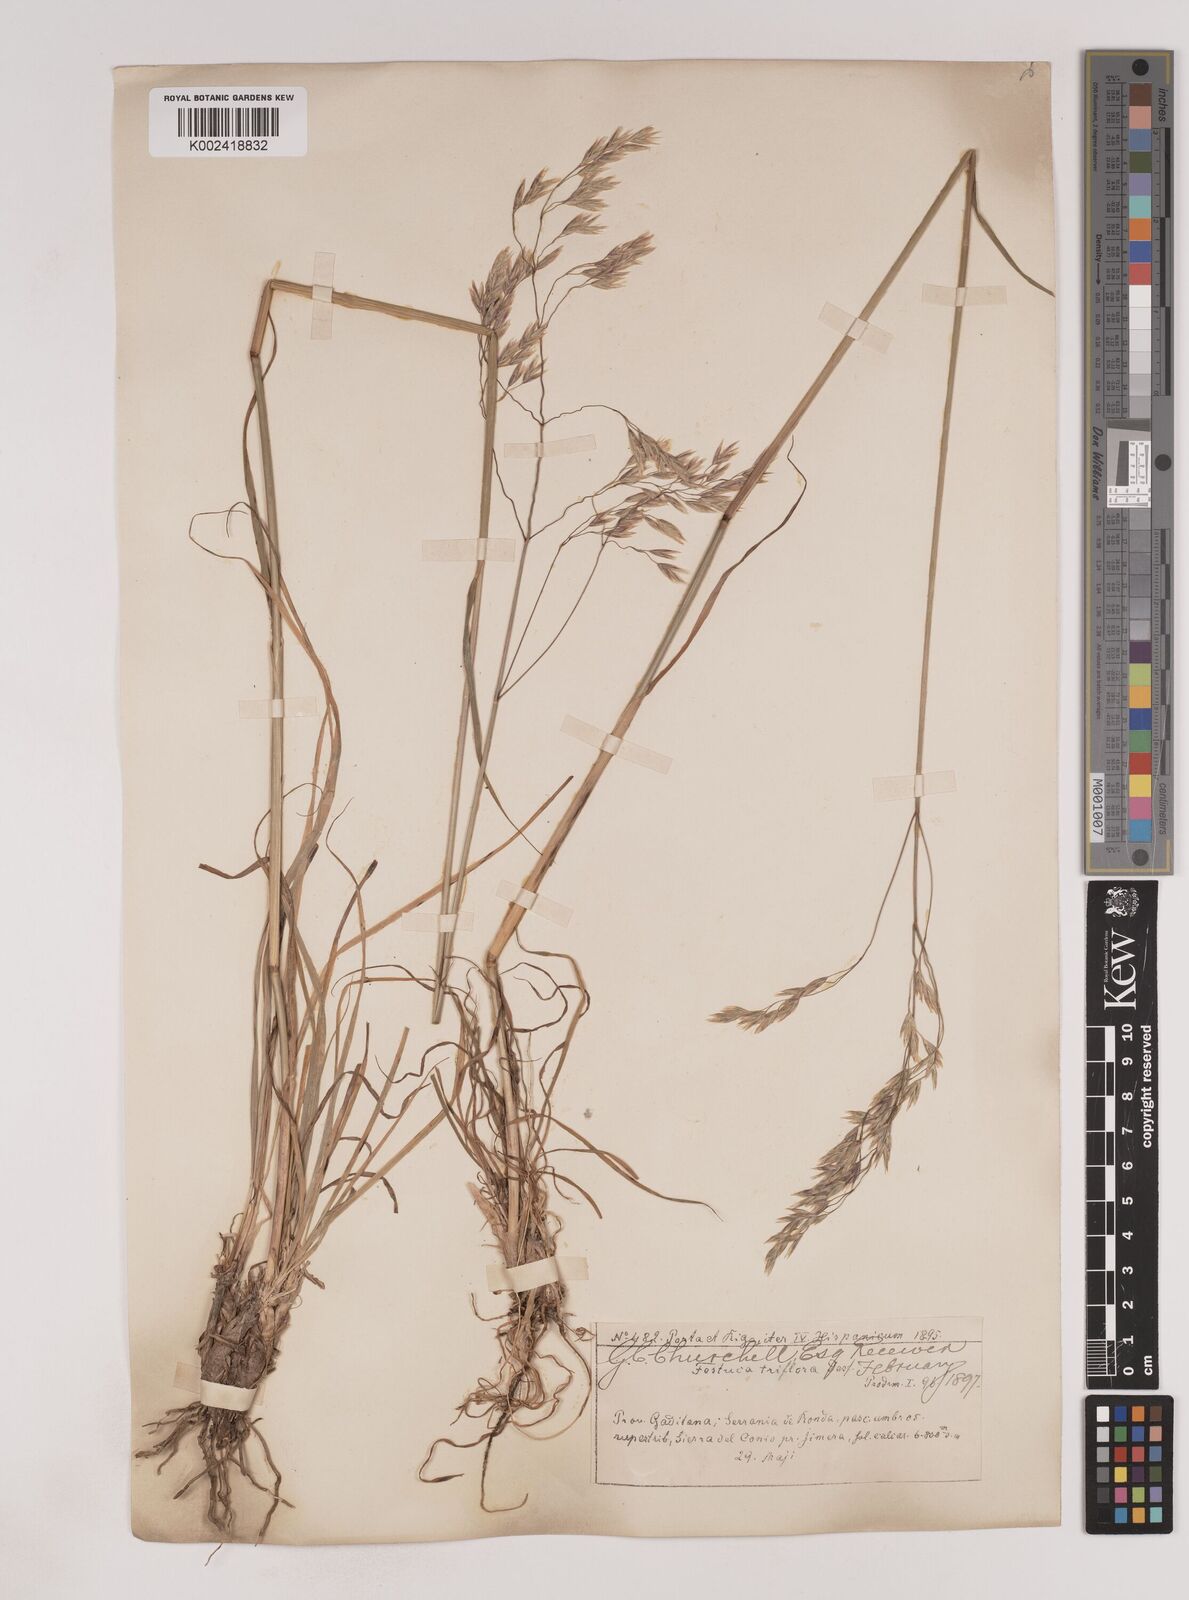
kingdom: Plantae
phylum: Tracheophyta
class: Liliopsida
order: Poales
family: Poaceae
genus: Patzkea
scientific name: Patzkea patula
